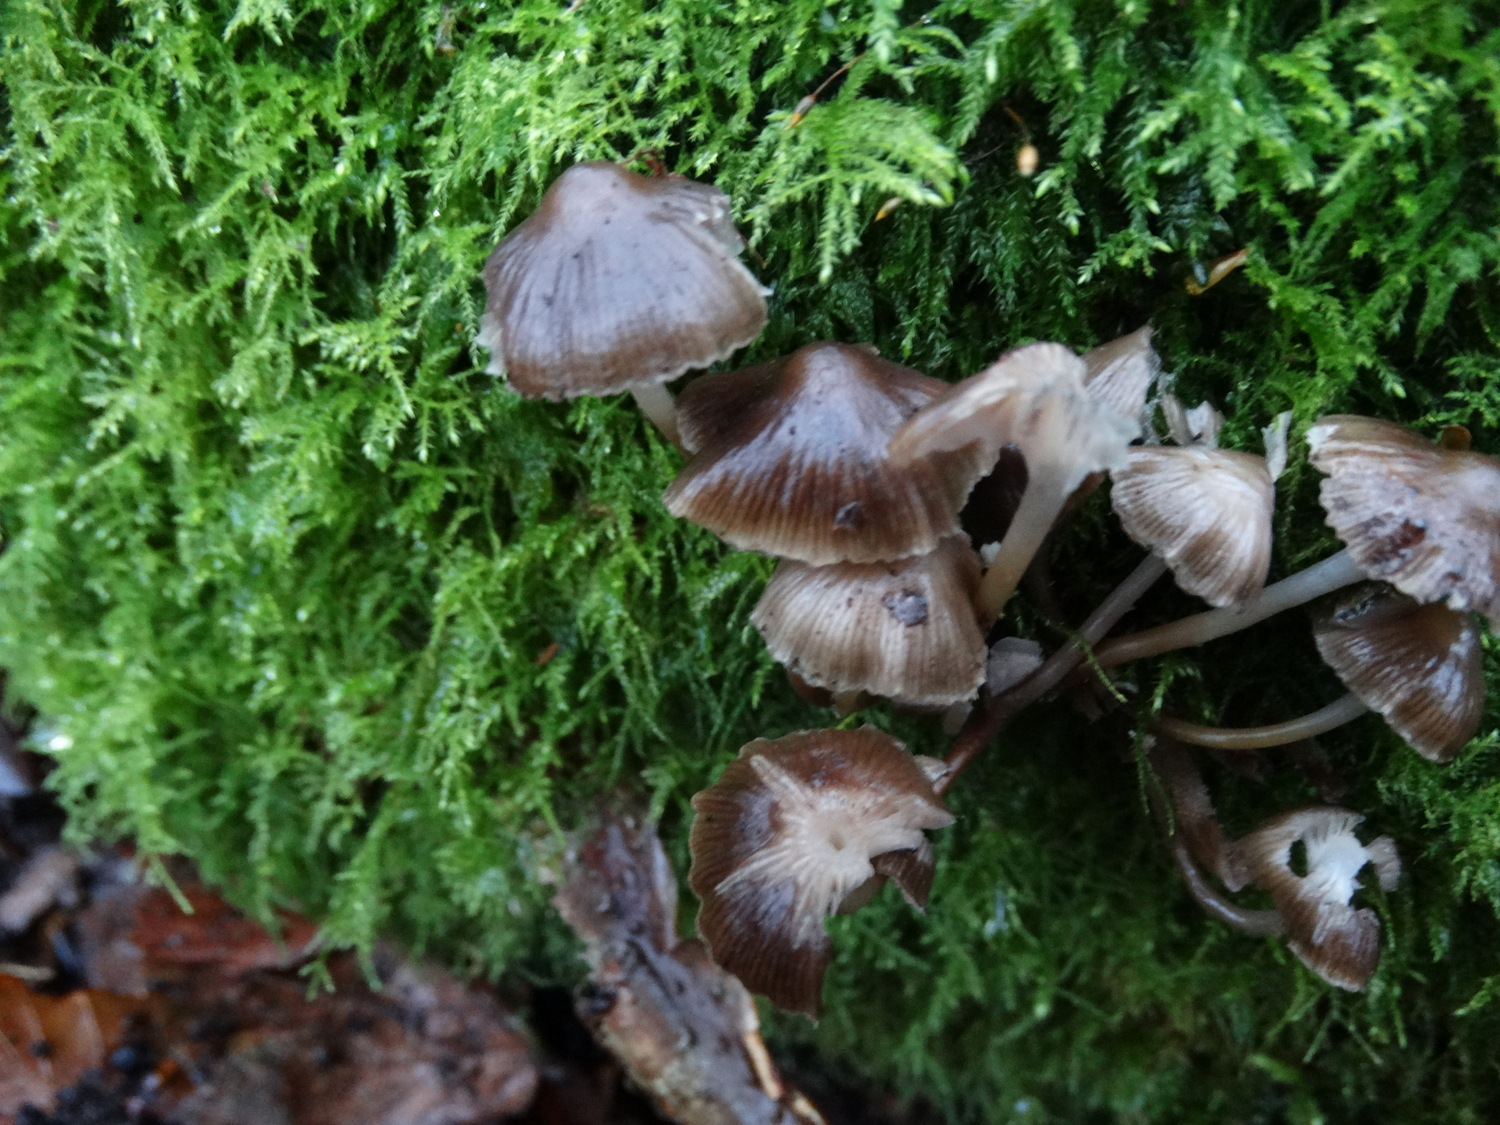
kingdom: Fungi
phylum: Basidiomycota
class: Agaricomycetes
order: Agaricales
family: Mycenaceae
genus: Mycena
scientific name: Mycena tintinnabulum
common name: vinter-huesvamp
